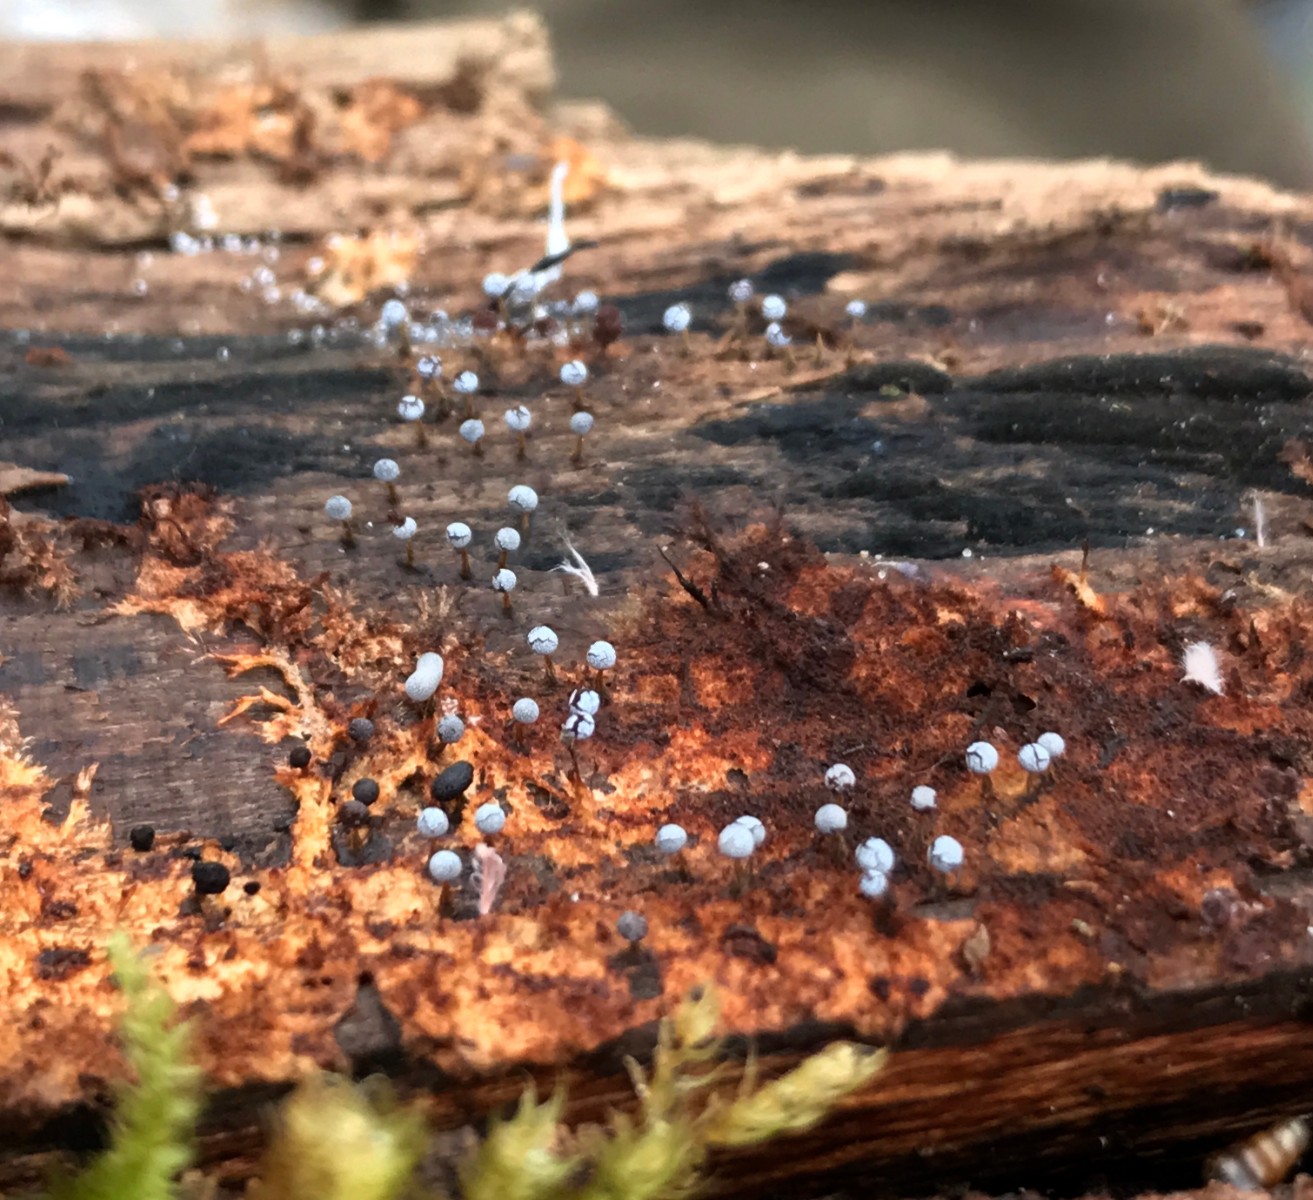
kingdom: Protozoa
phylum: Mycetozoa
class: Myxomycetes
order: Physarales
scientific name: Physarales
